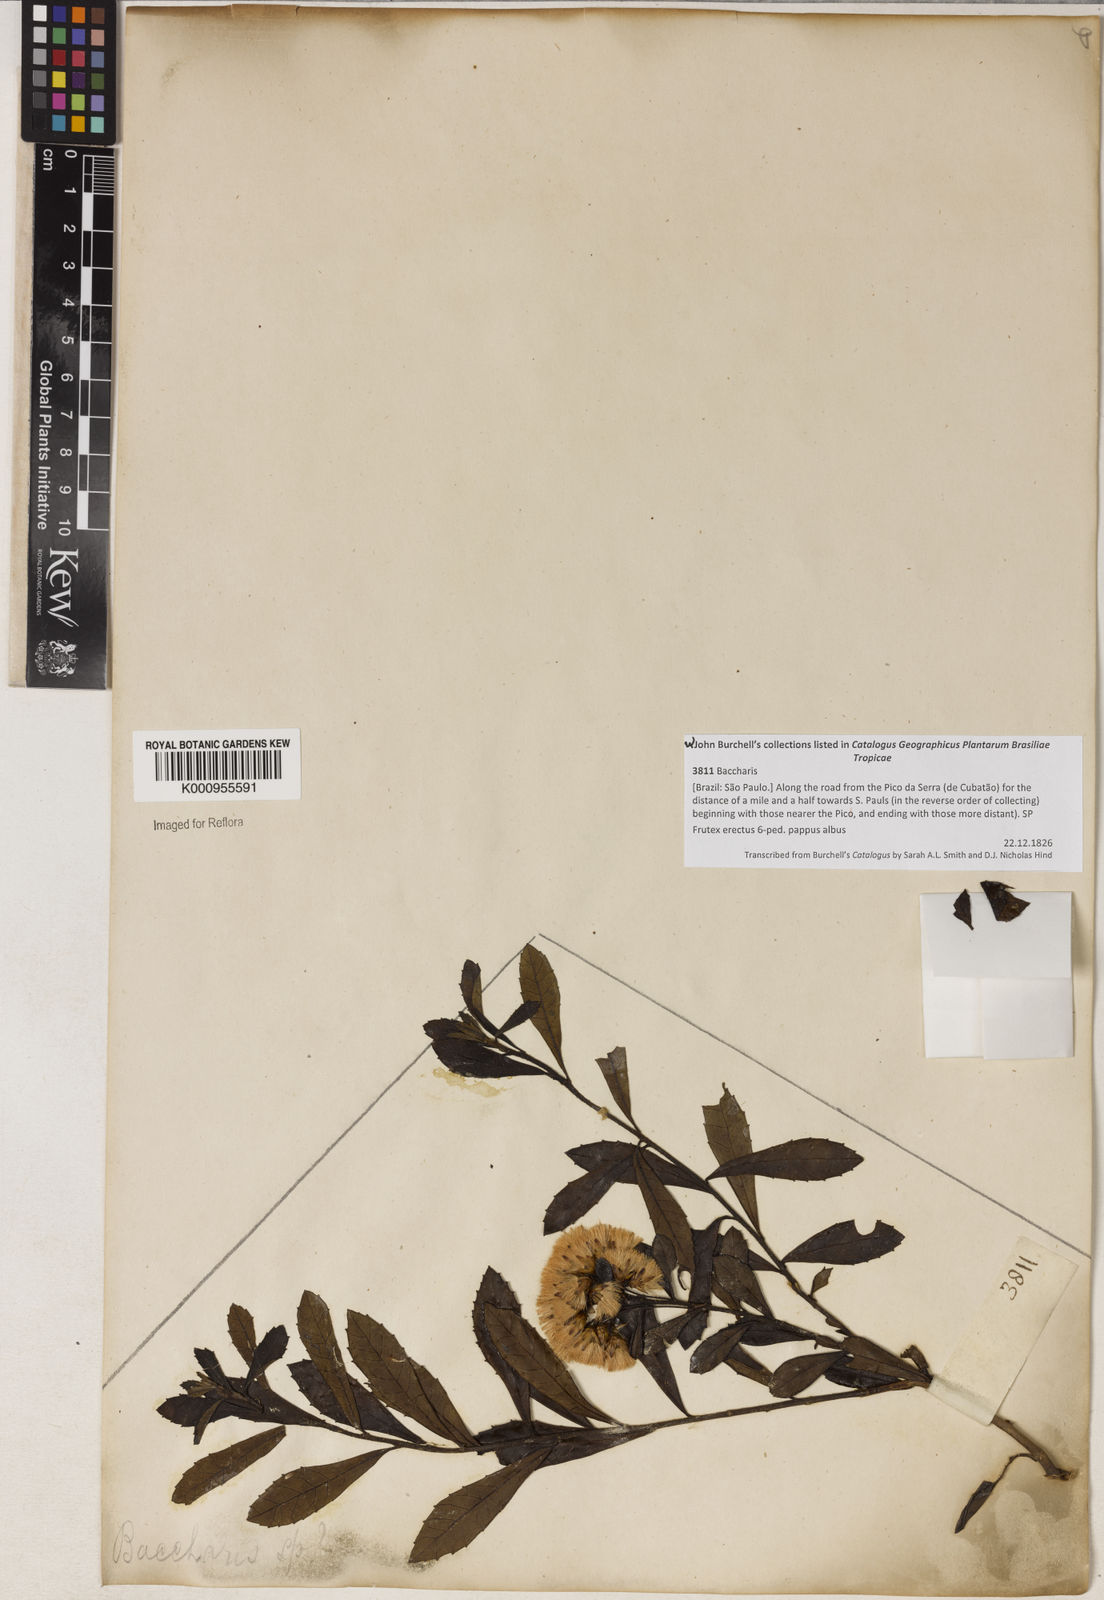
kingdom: Plantae
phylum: Tracheophyta
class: Magnoliopsida
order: Asterales
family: Asteraceae
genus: Baccharis
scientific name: Baccharis
